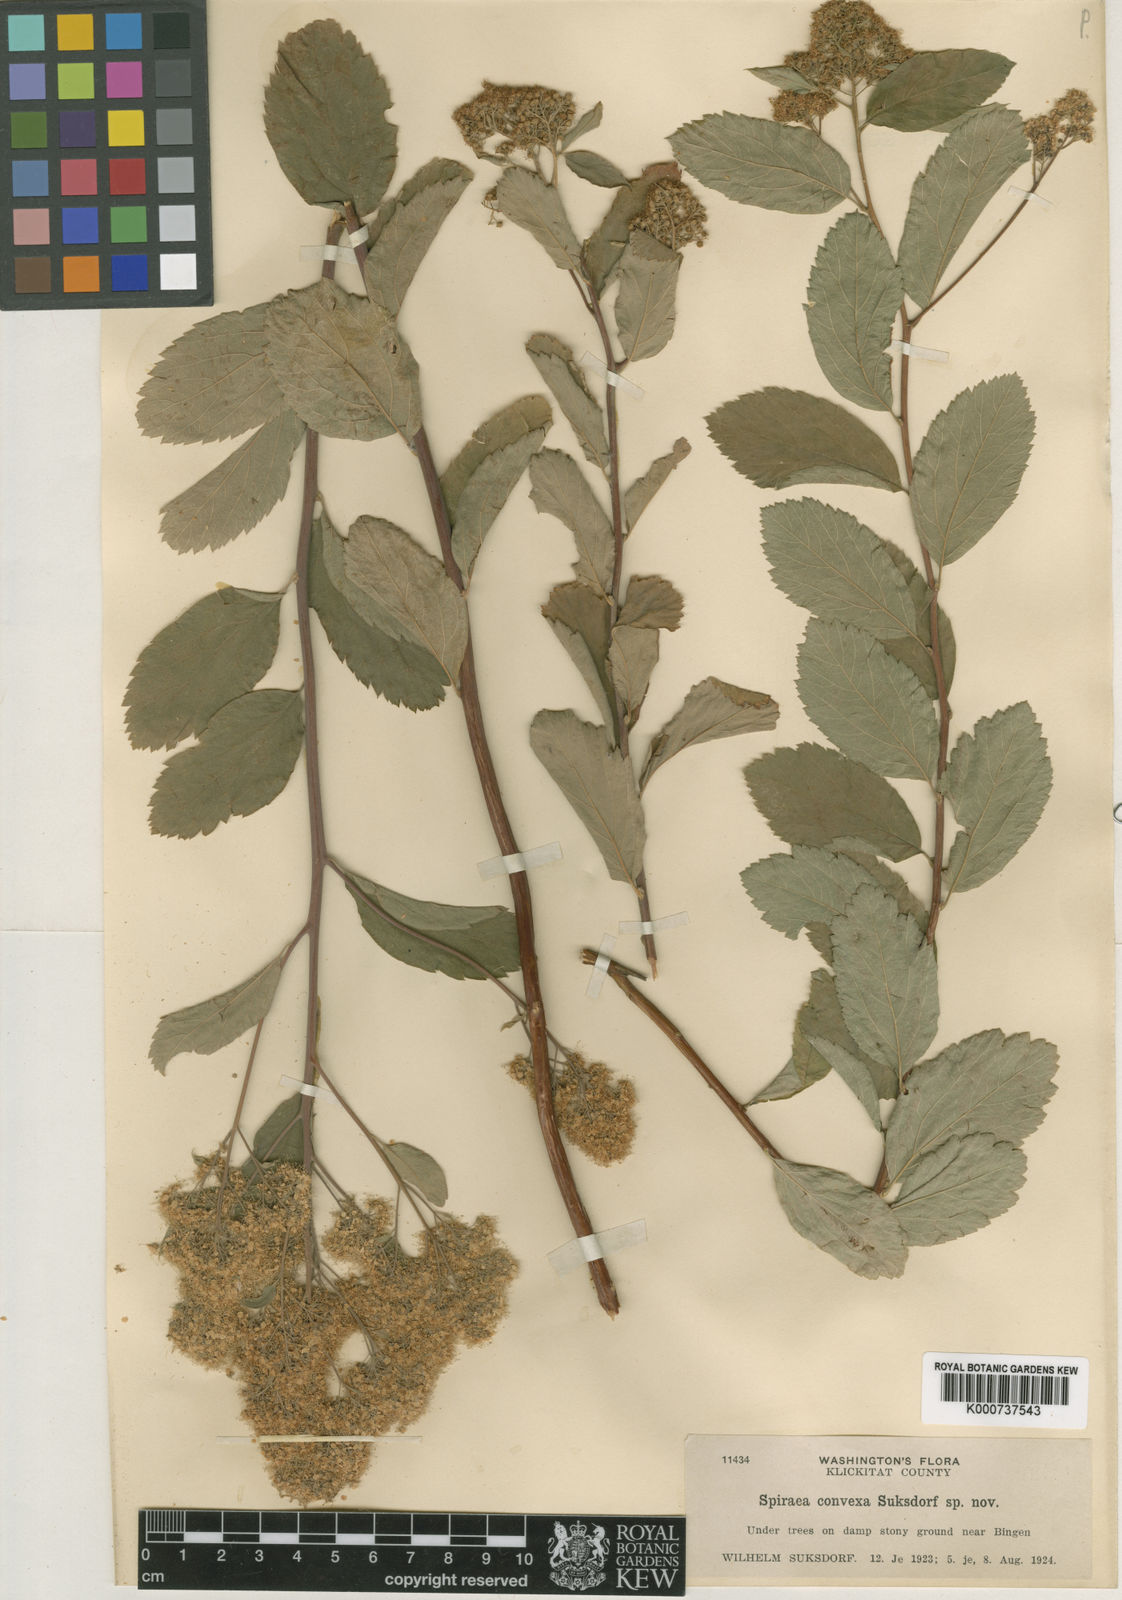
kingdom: Plantae
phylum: Tracheophyta
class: Magnoliopsida
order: Rosales
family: Rosaceae
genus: Spiraea
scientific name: Spiraea
